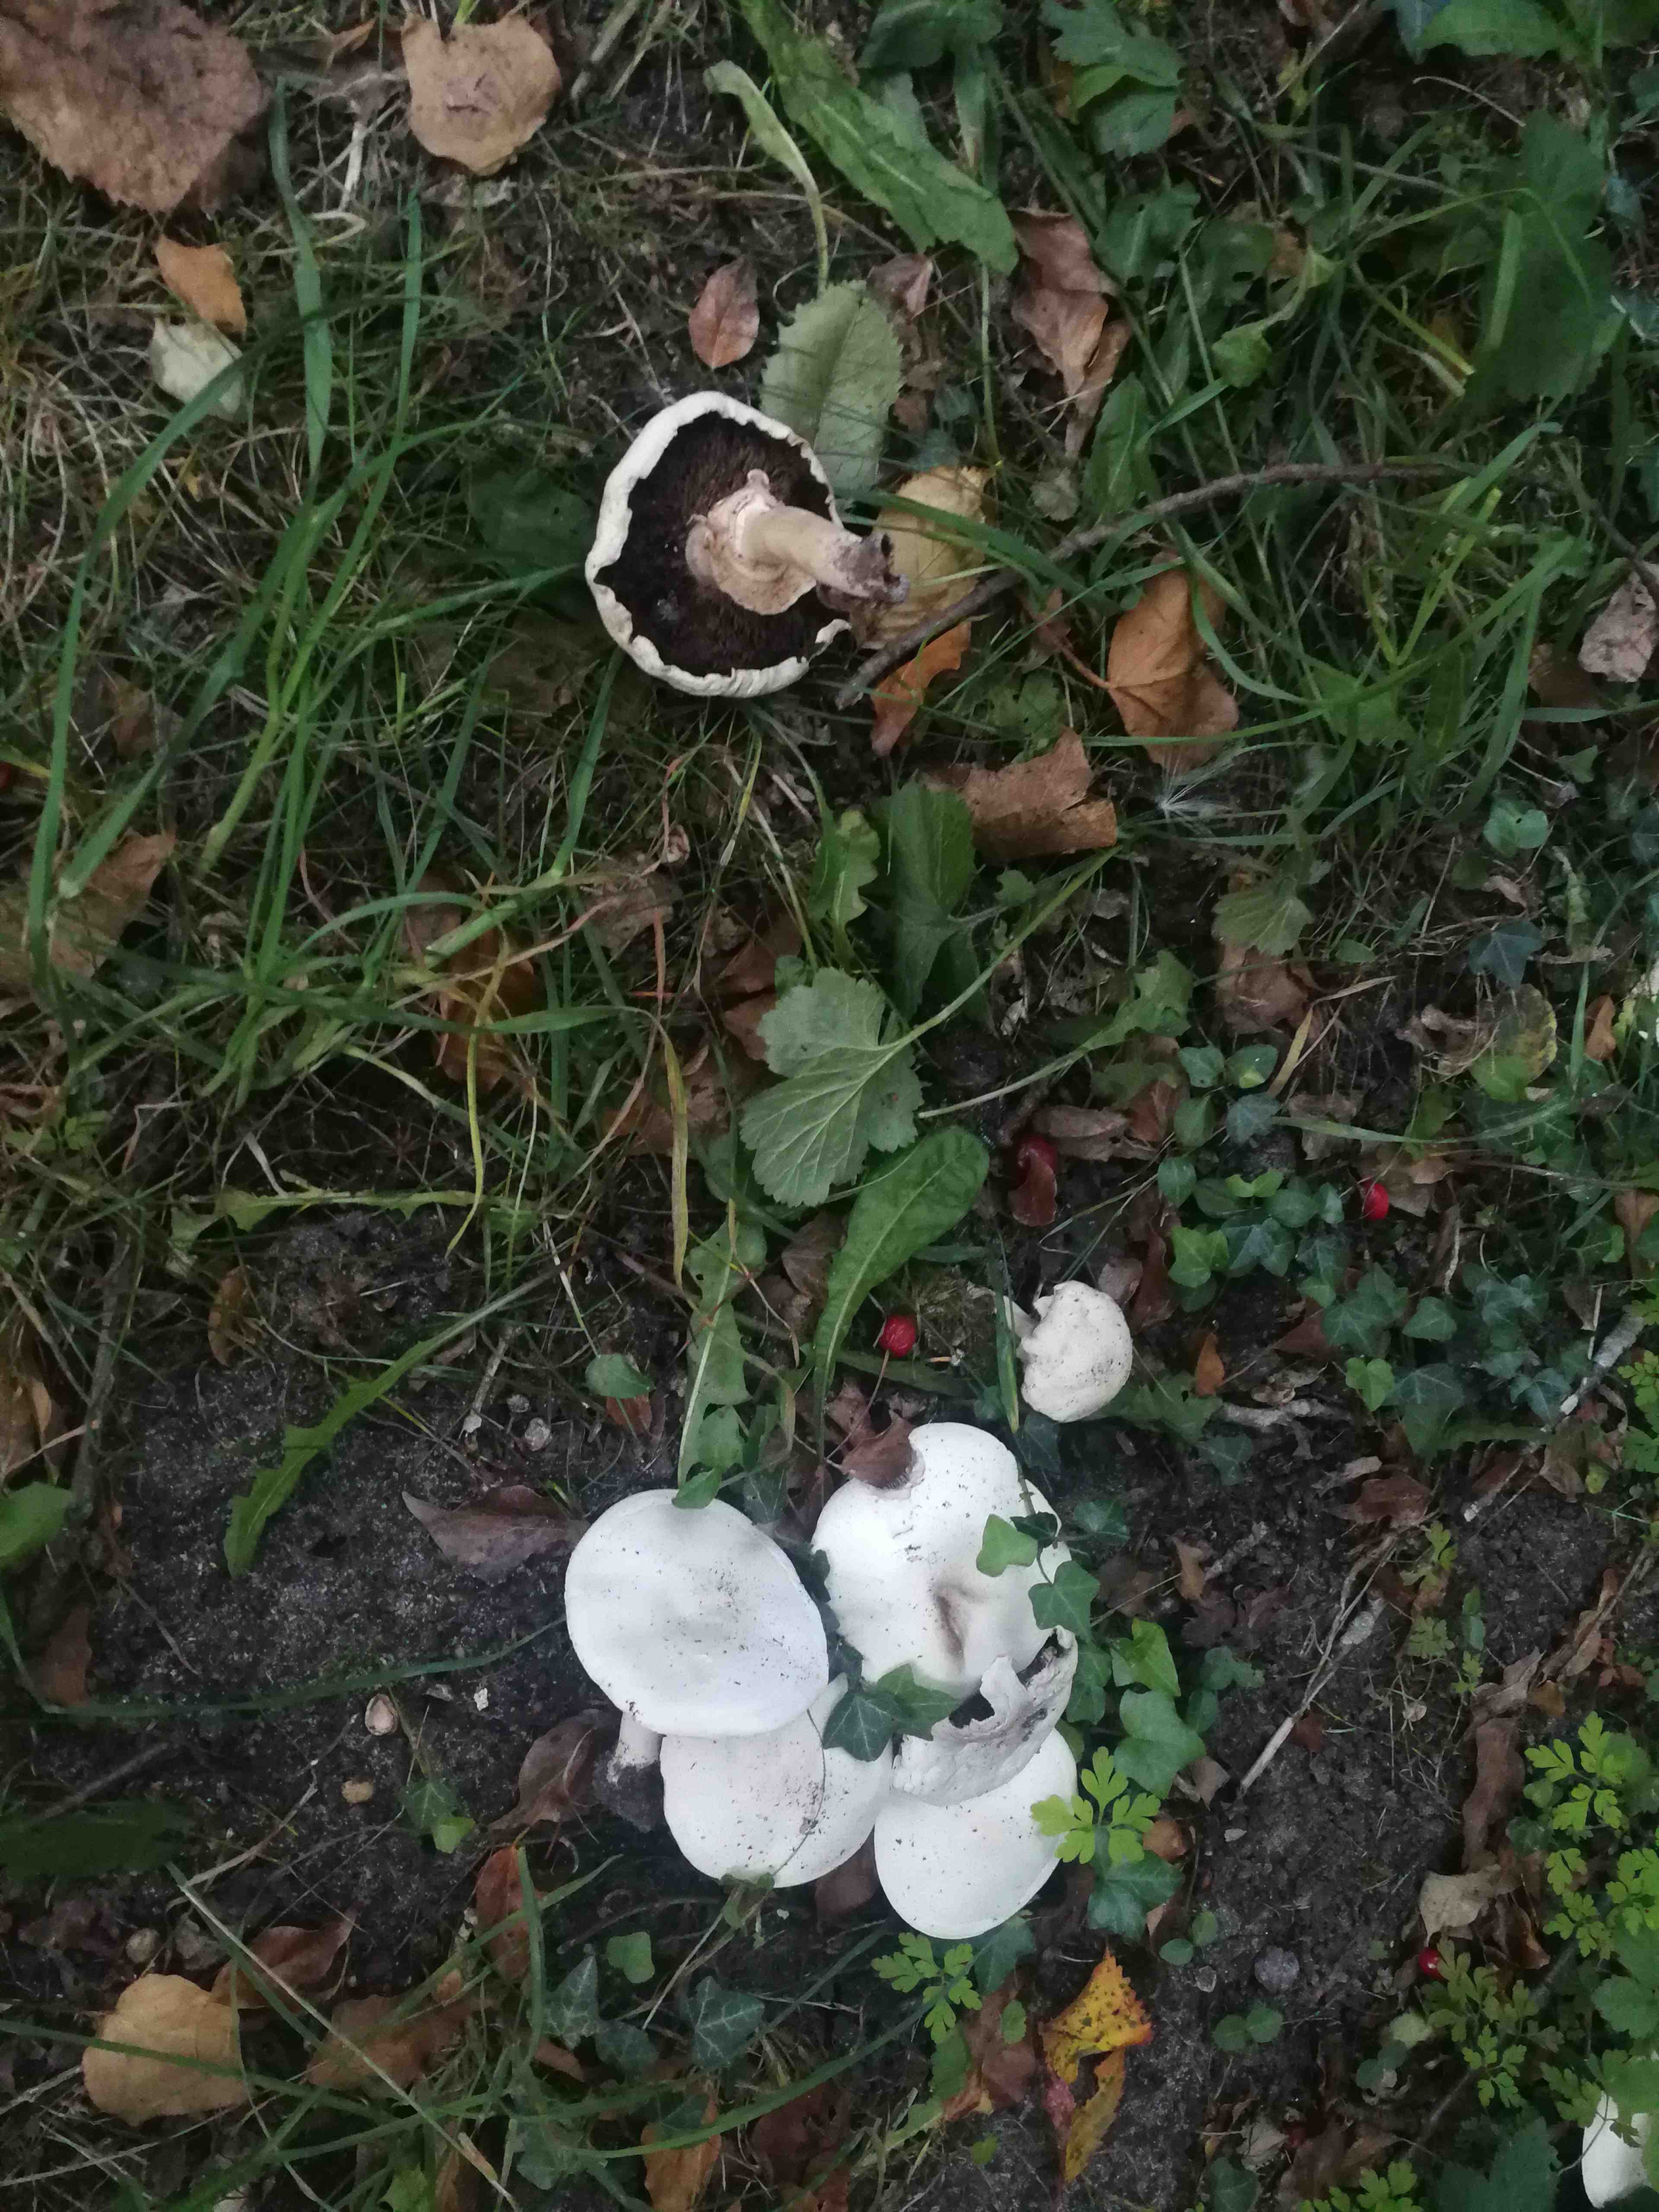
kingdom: Fungi
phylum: Basidiomycota
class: Agaricomycetes
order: Agaricales
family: Agaricaceae
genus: Agaricus
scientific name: Agaricus xanthodermus
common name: karbol-champignon
